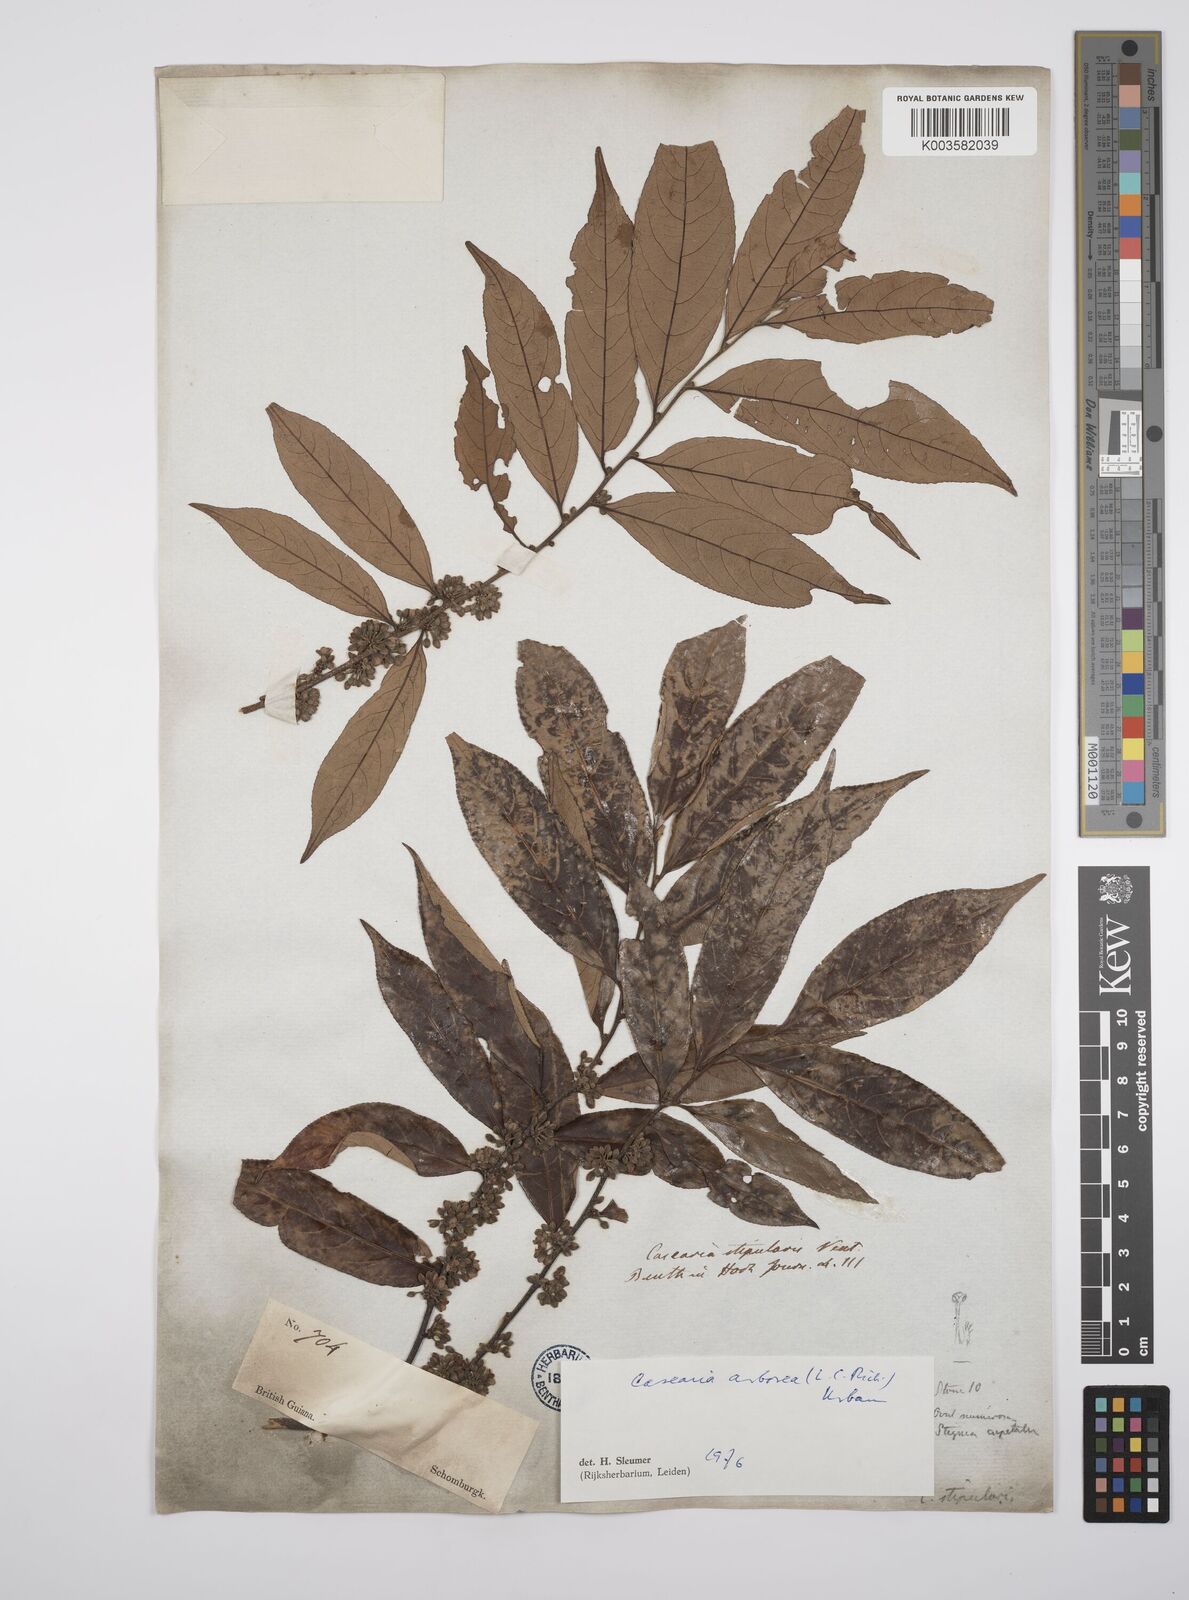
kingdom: Plantae
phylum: Tracheophyta
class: Magnoliopsida
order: Malpighiales
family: Salicaceae
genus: Casearia
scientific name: Casearia arborea
